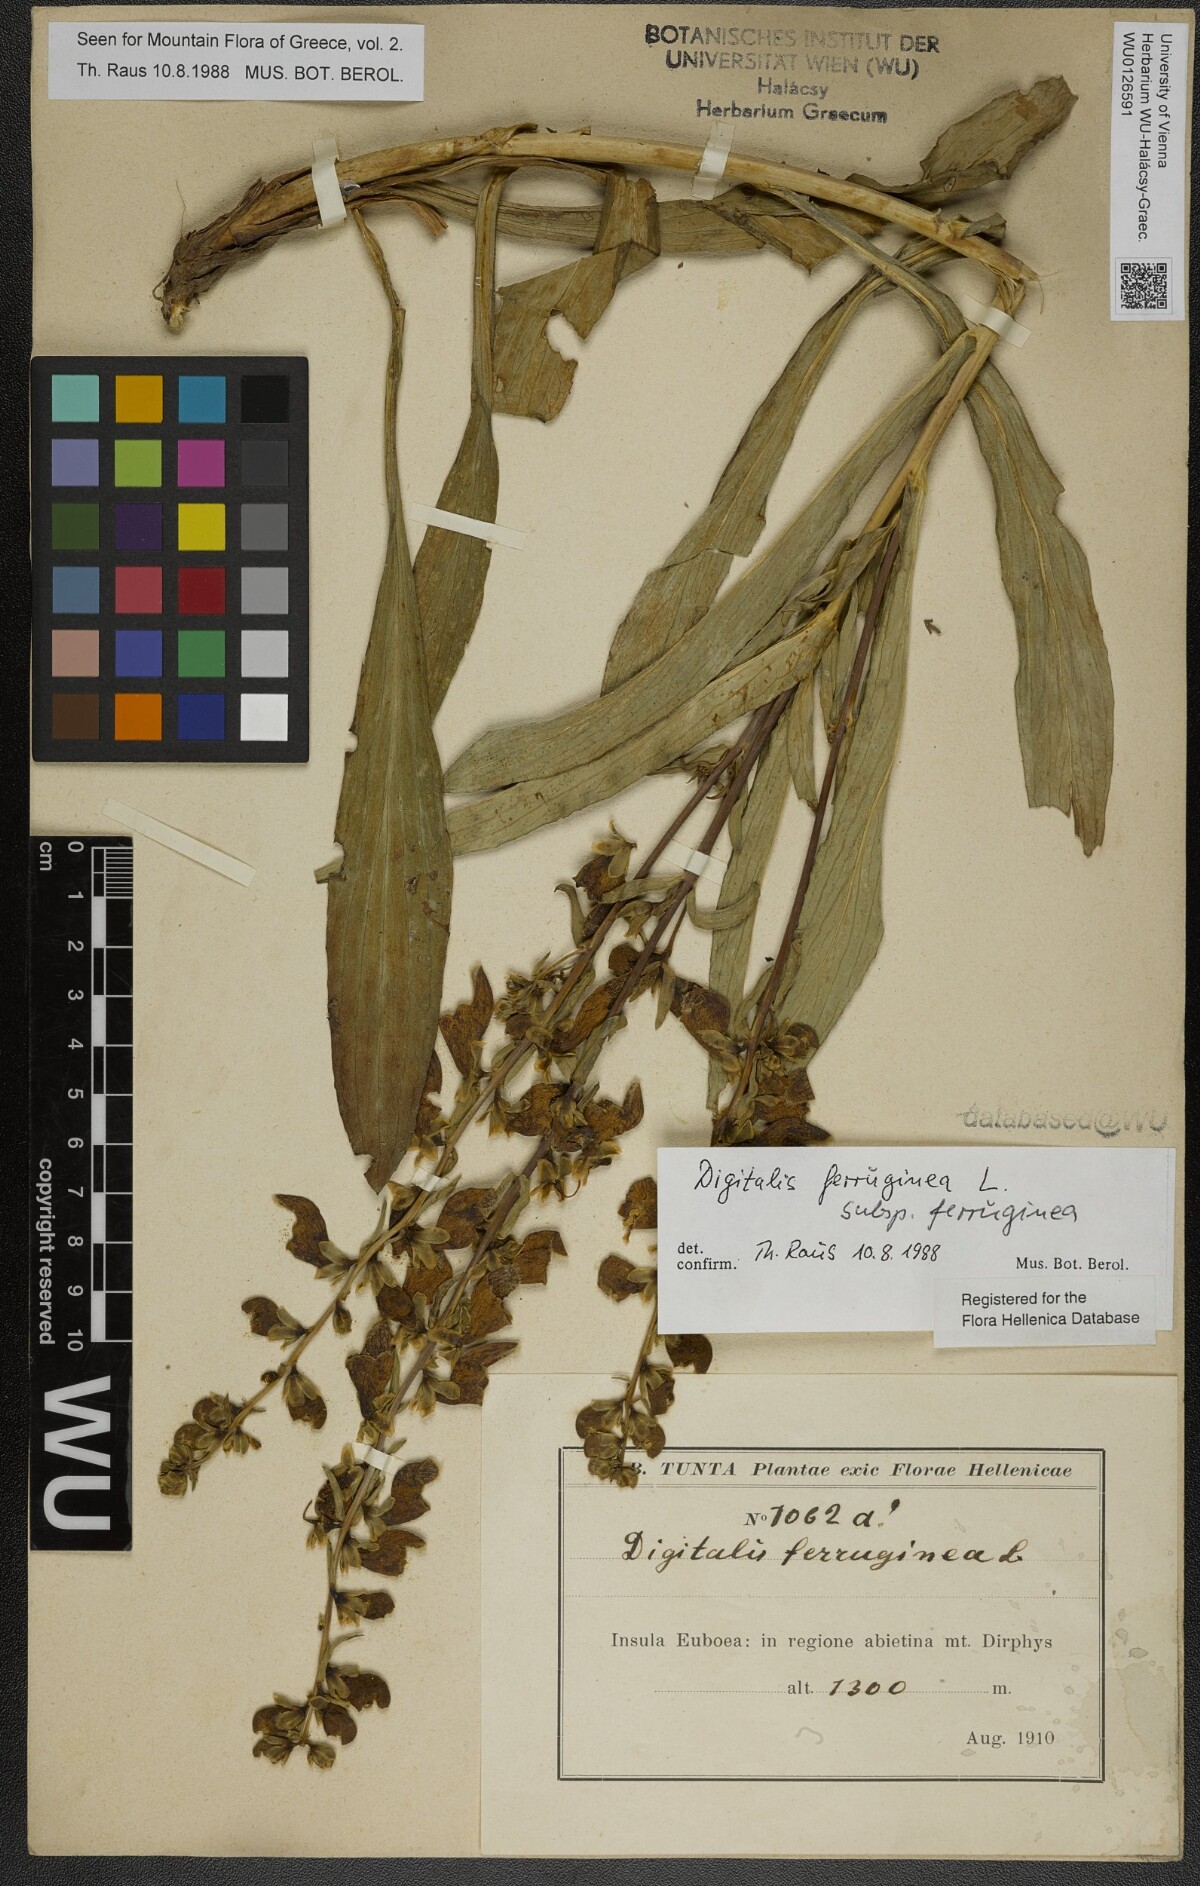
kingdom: Plantae
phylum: Tracheophyta
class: Magnoliopsida
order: Lamiales
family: Plantaginaceae
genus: Digitalis
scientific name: Digitalis ferruginea
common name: Rusty foxglove
